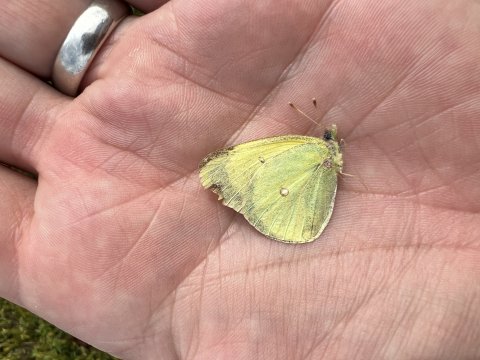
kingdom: Animalia
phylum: Arthropoda
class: Insecta
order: Lepidoptera
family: Pieridae
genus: Colias
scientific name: Colias interior
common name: Pink-edged Sulphur
